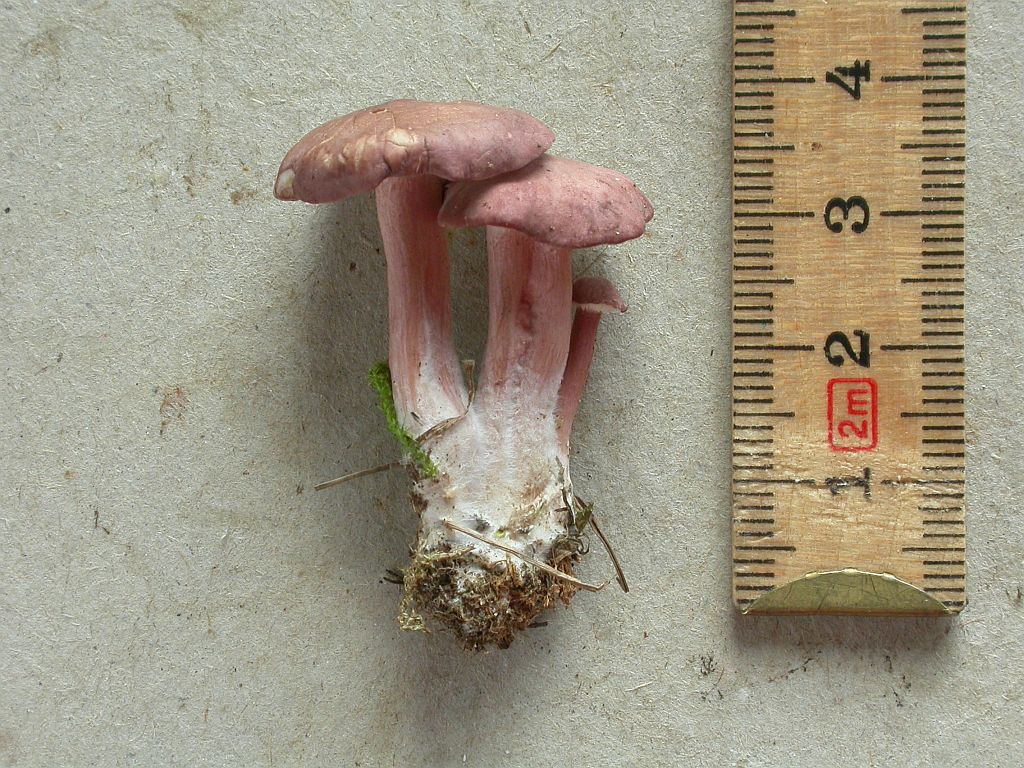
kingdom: Fungi
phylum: Basidiomycota
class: Agaricomycetes
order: Agaricales
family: Lyophyllaceae
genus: Calocybe
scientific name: Calocybe carnea
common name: rosa fagerhat
